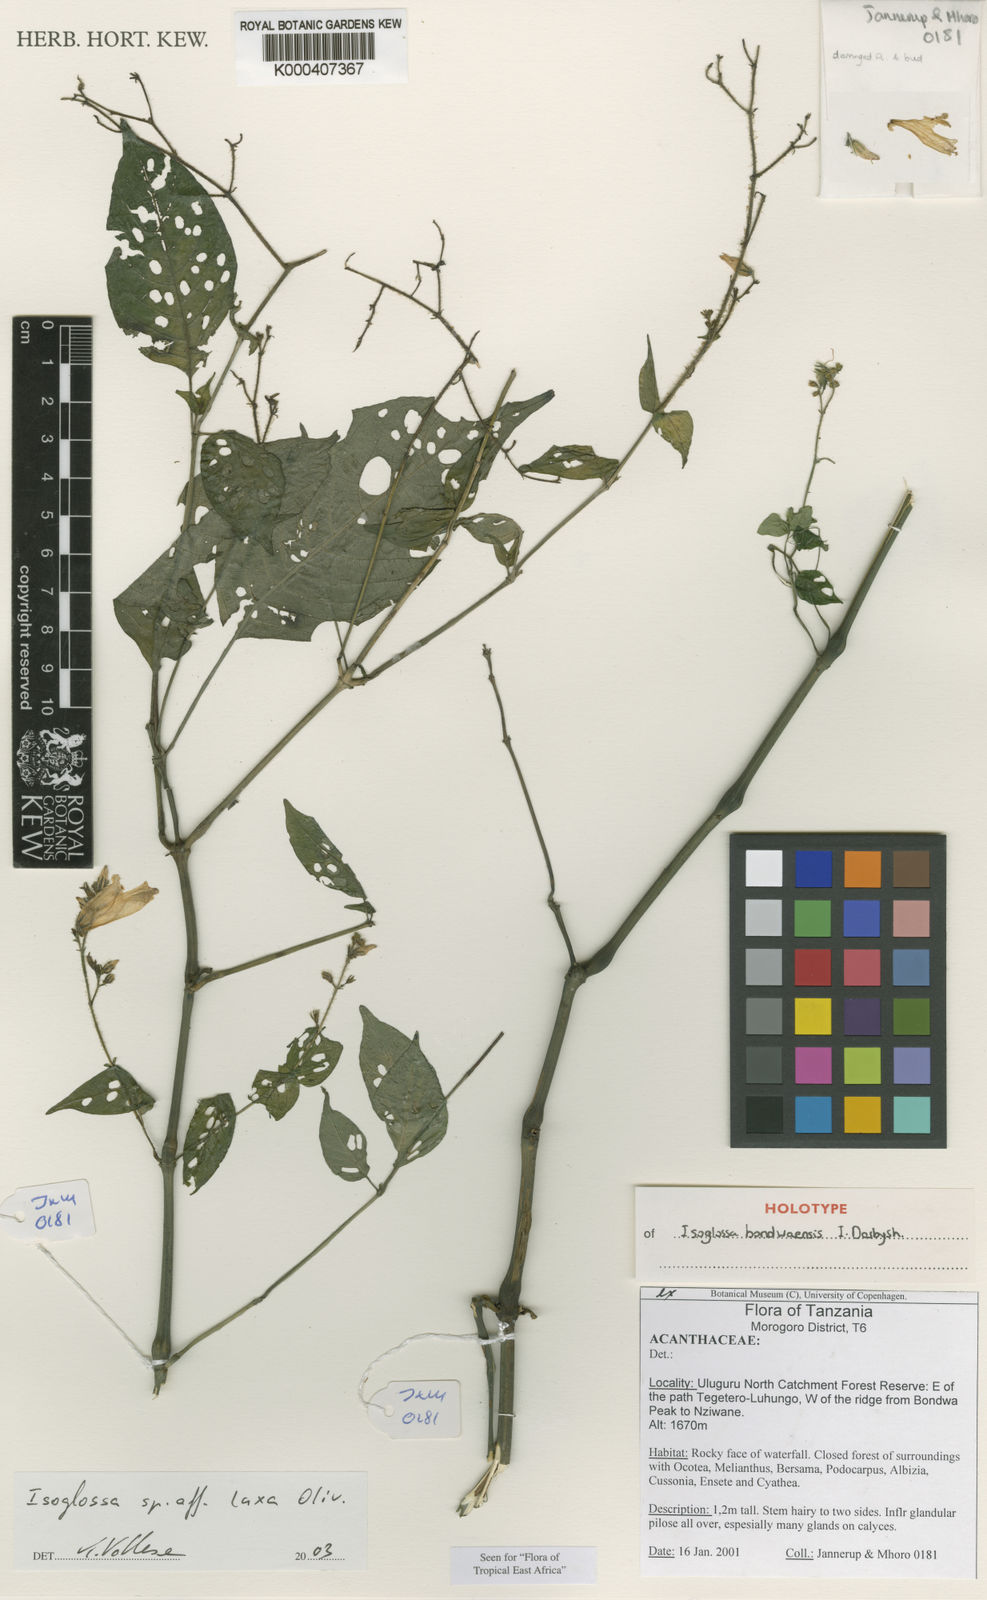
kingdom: Plantae
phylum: Tracheophyta
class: Magnoliopsida
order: Lamiales
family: Acanthaceae
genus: Isoglossa
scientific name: Isoglossa bondwaensis
